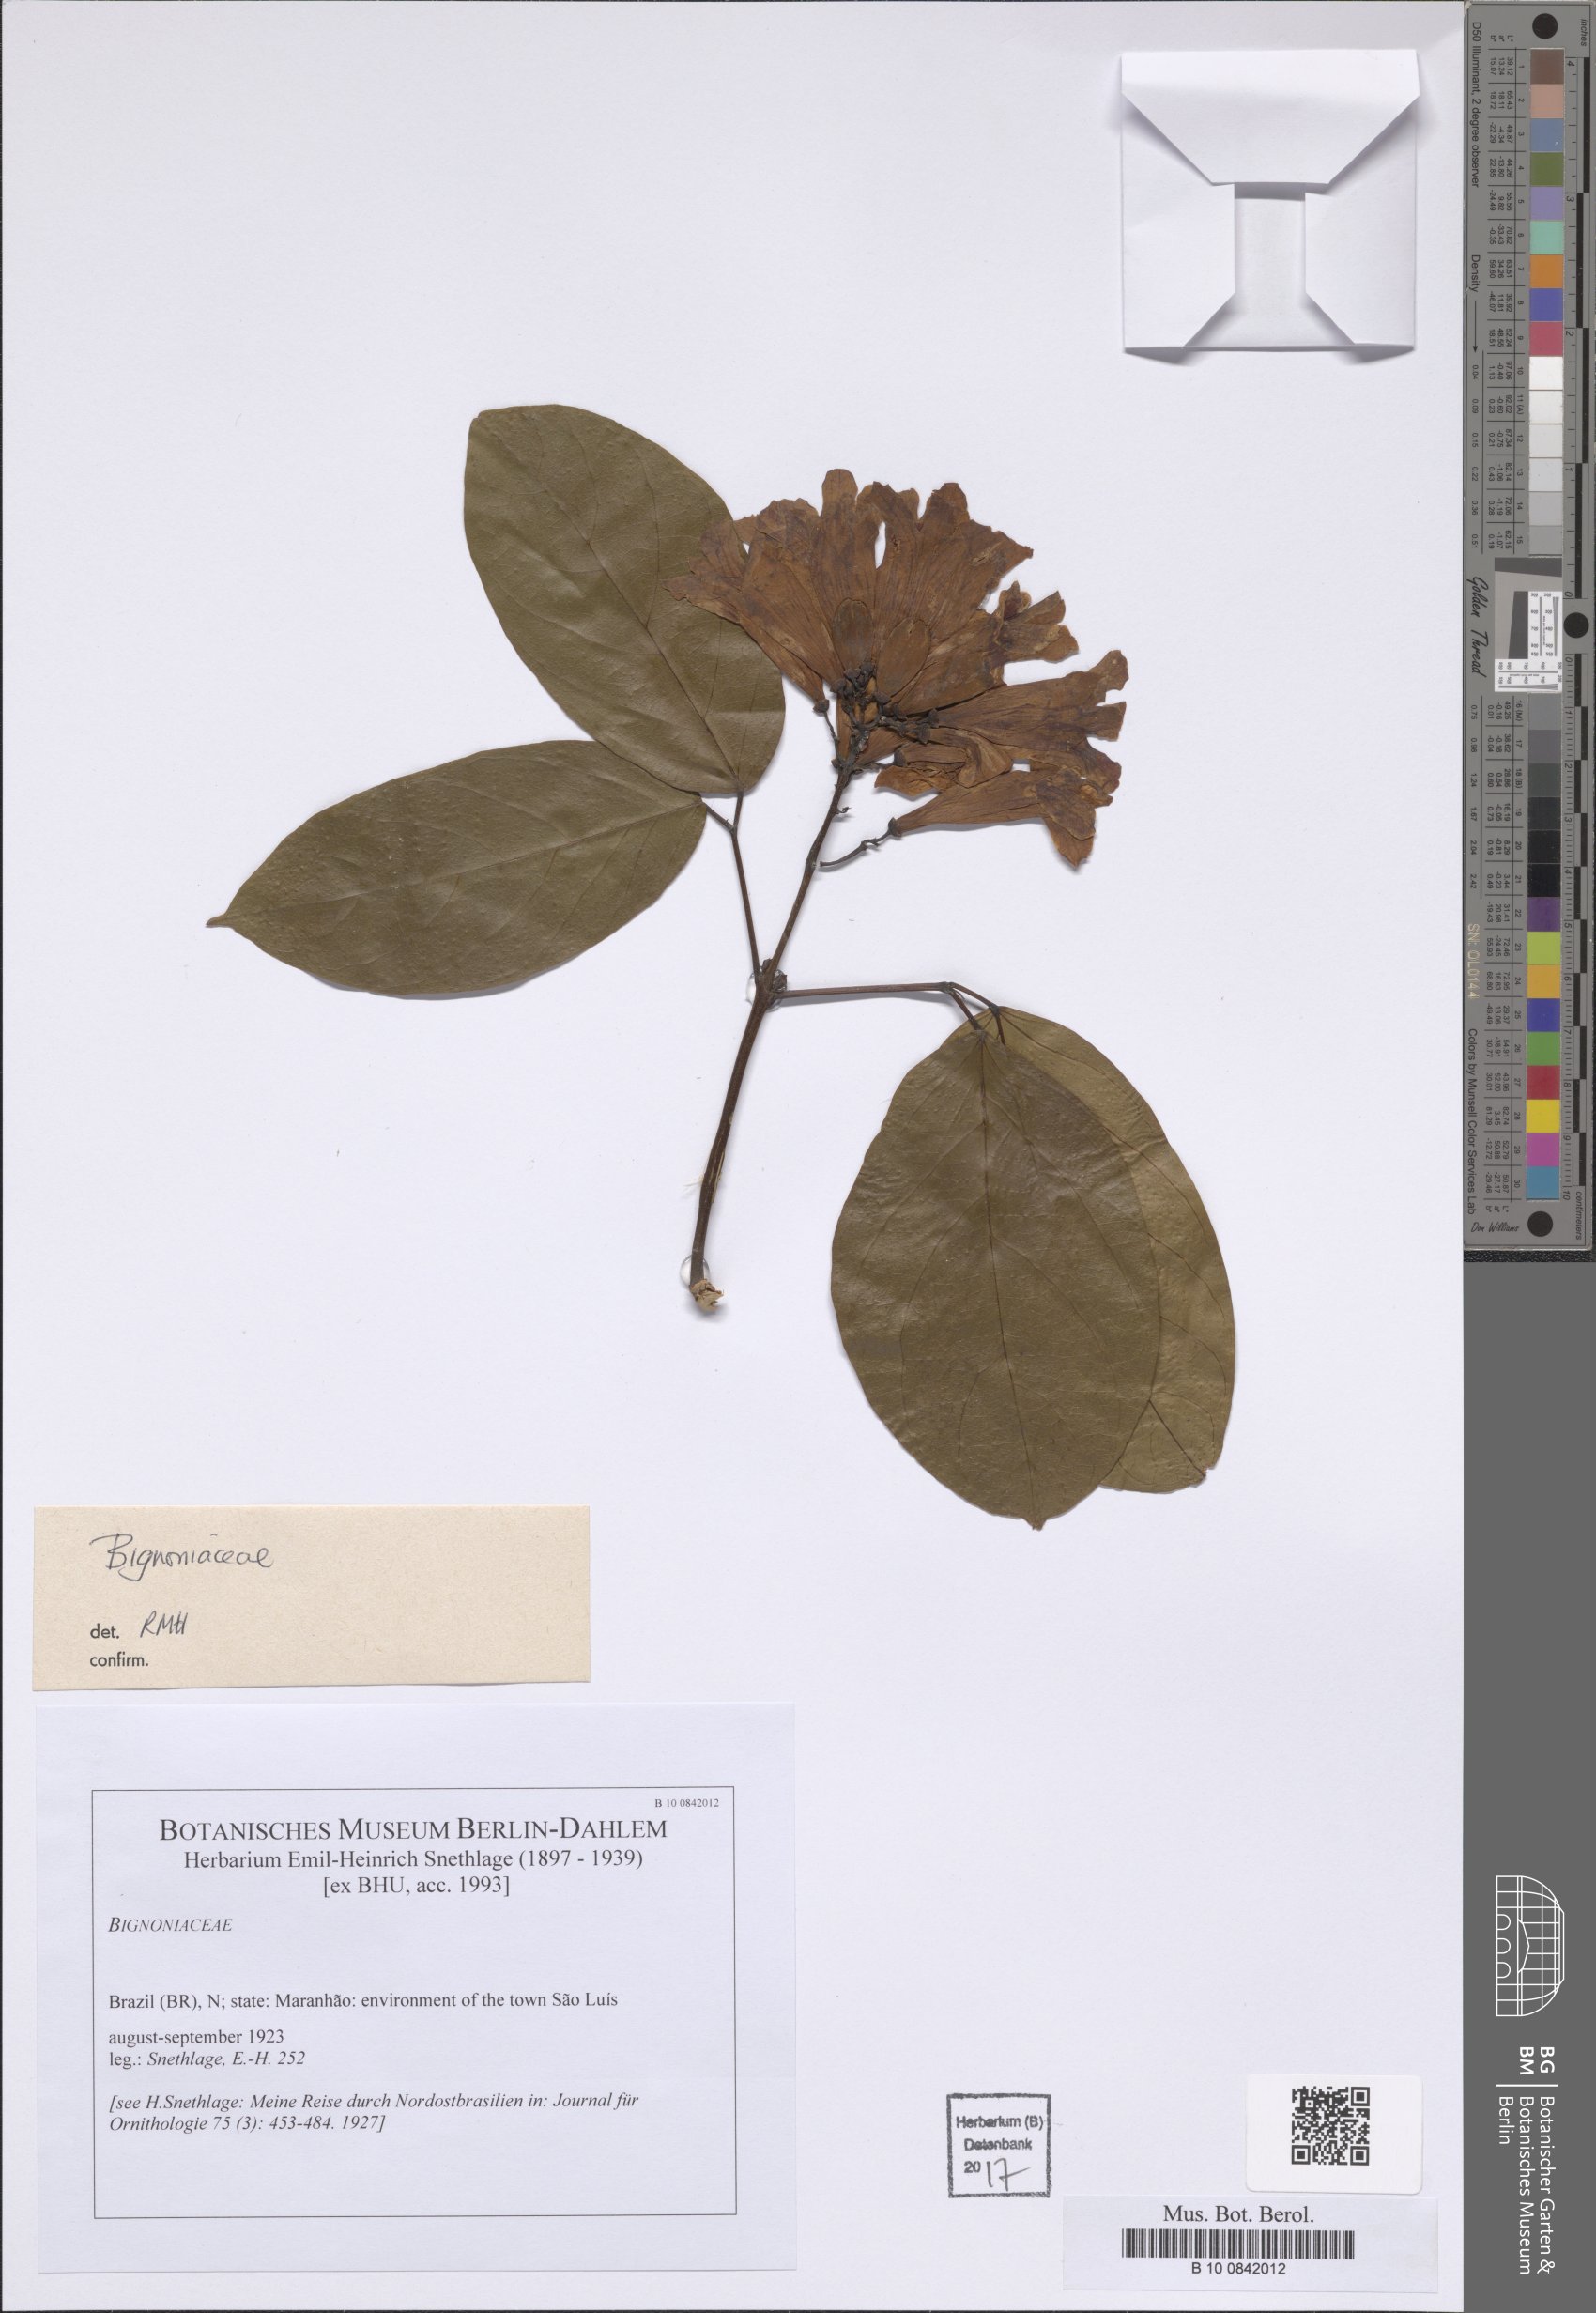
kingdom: Plantae
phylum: Tracheophyta
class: Magnoliopsida
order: Lamiales
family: Bignoniaceae
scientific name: Bignoniaceae
